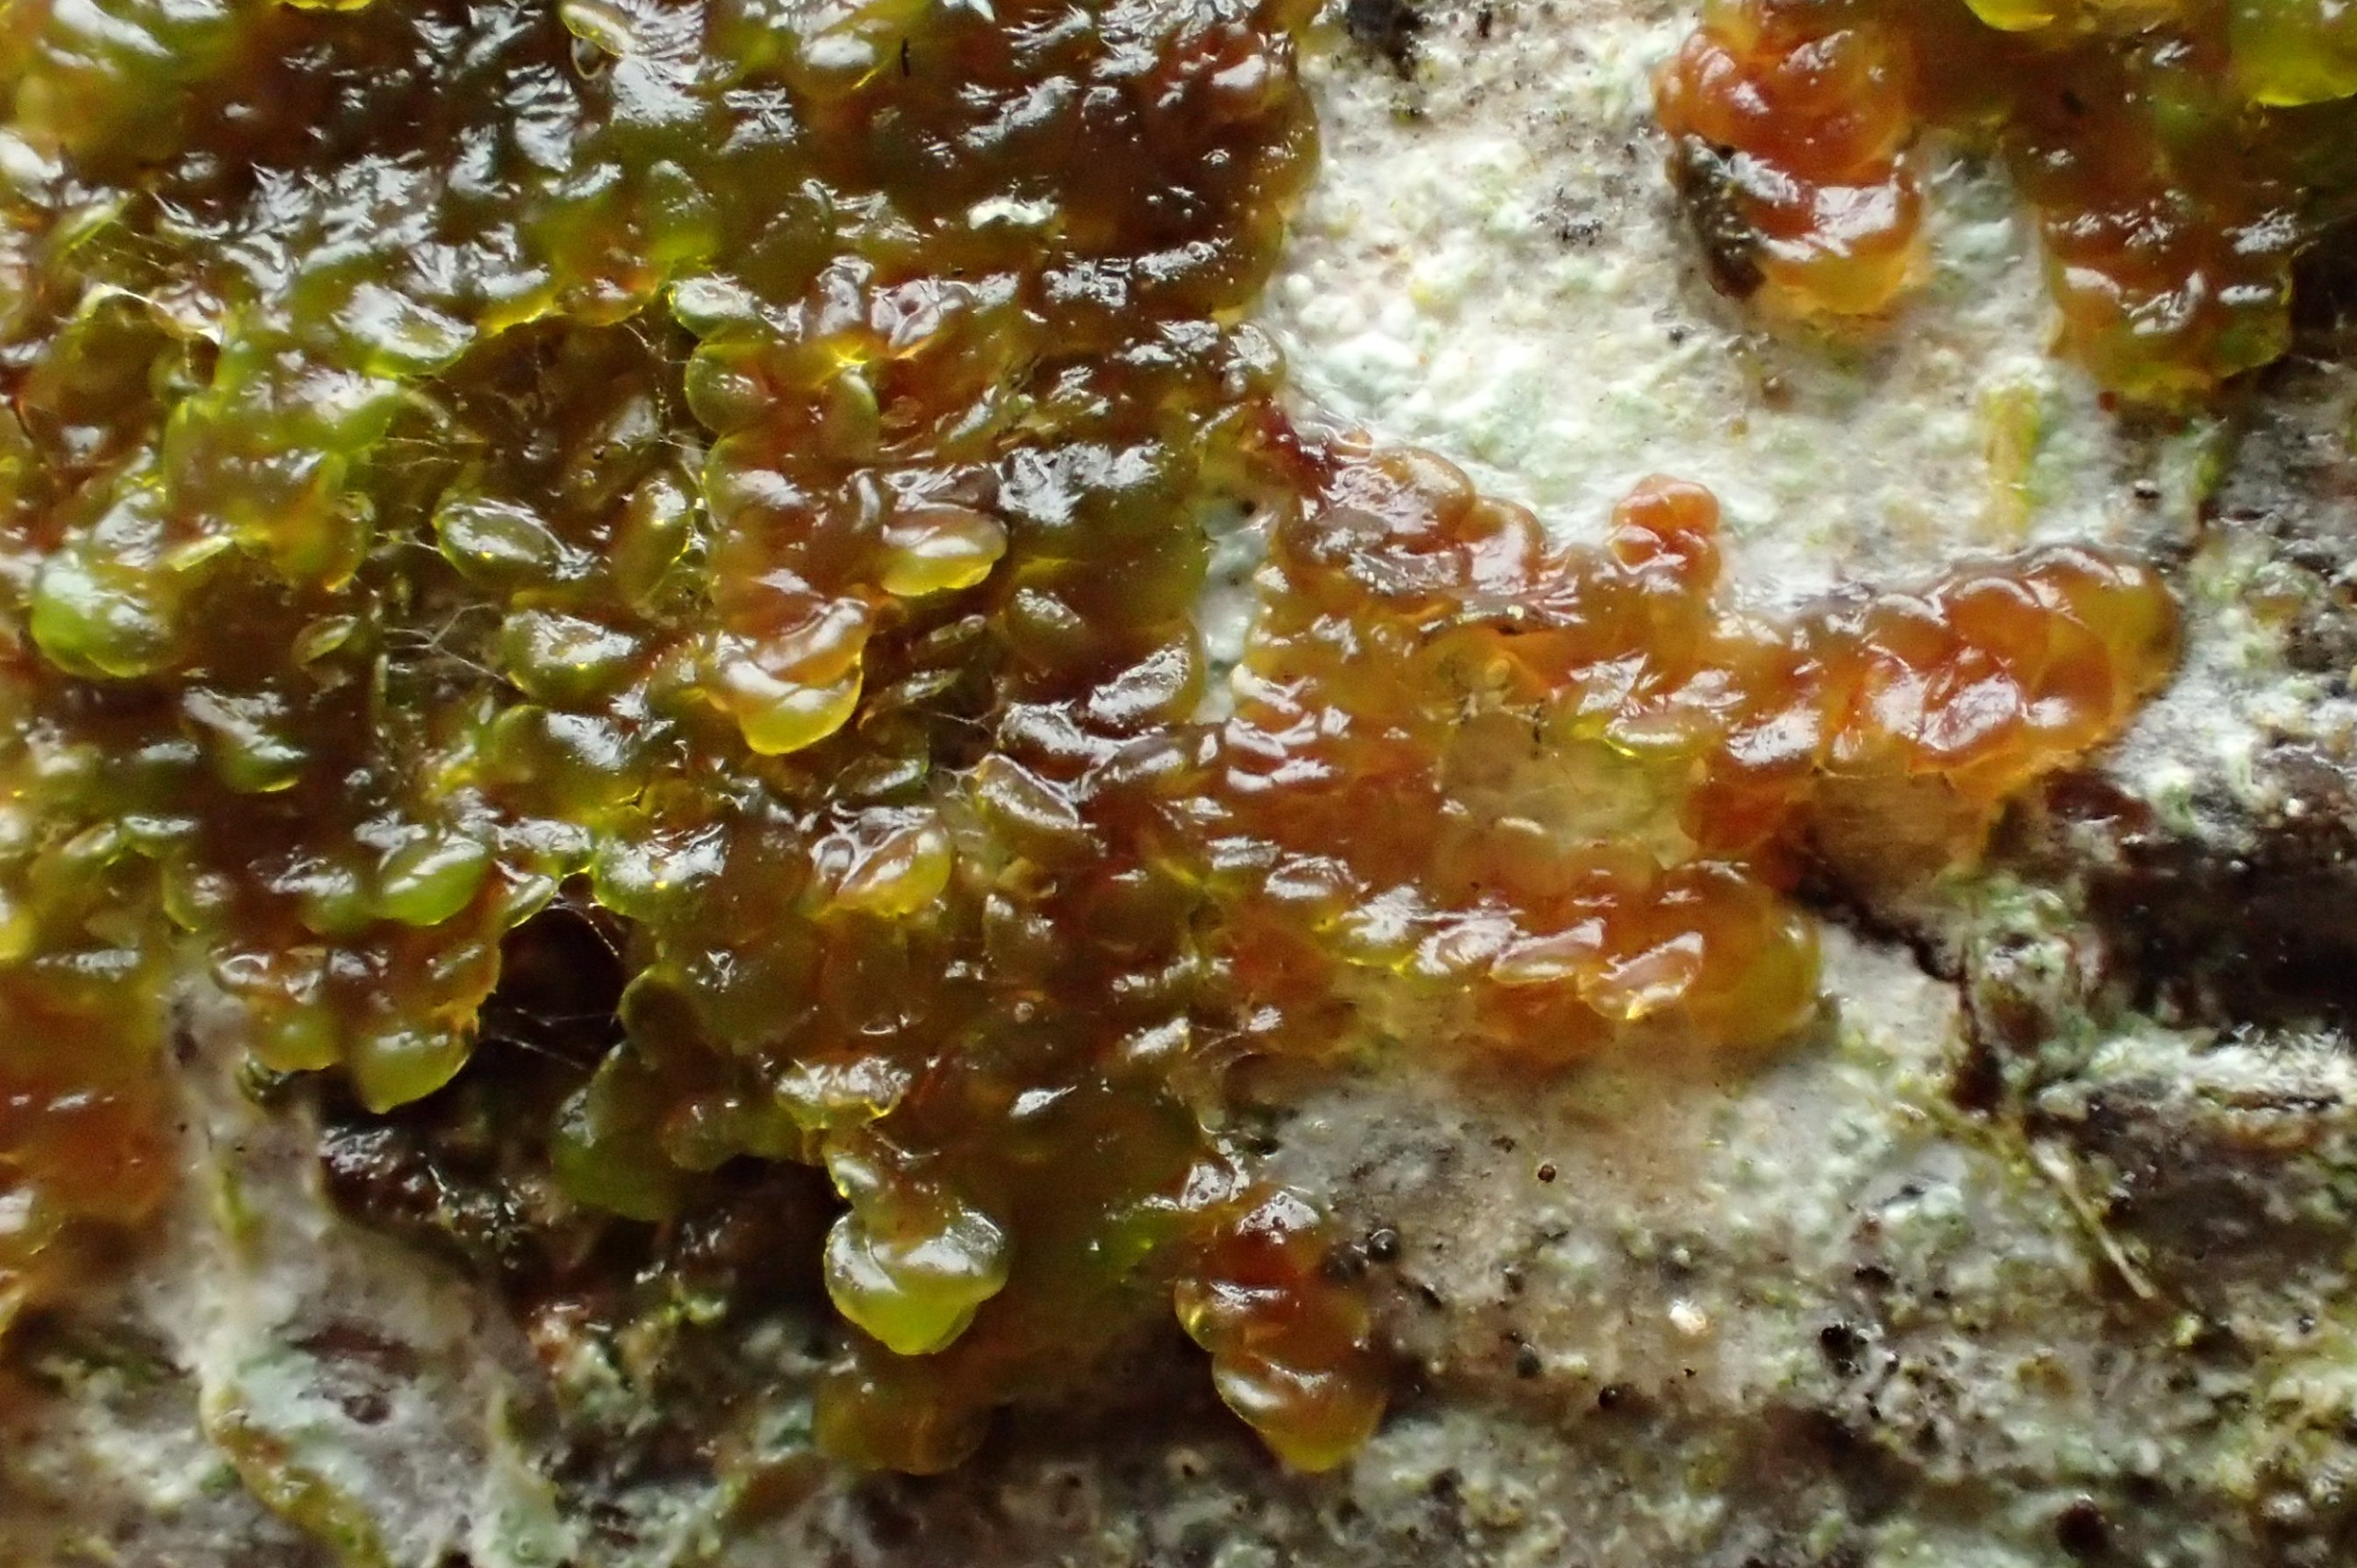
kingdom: Plantae
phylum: Marchantiophyta
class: Jungermanniopsida
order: Porellales
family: Frullaniaceae
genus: Frullania
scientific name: Frullania dilatata
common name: Mat bronzemos
